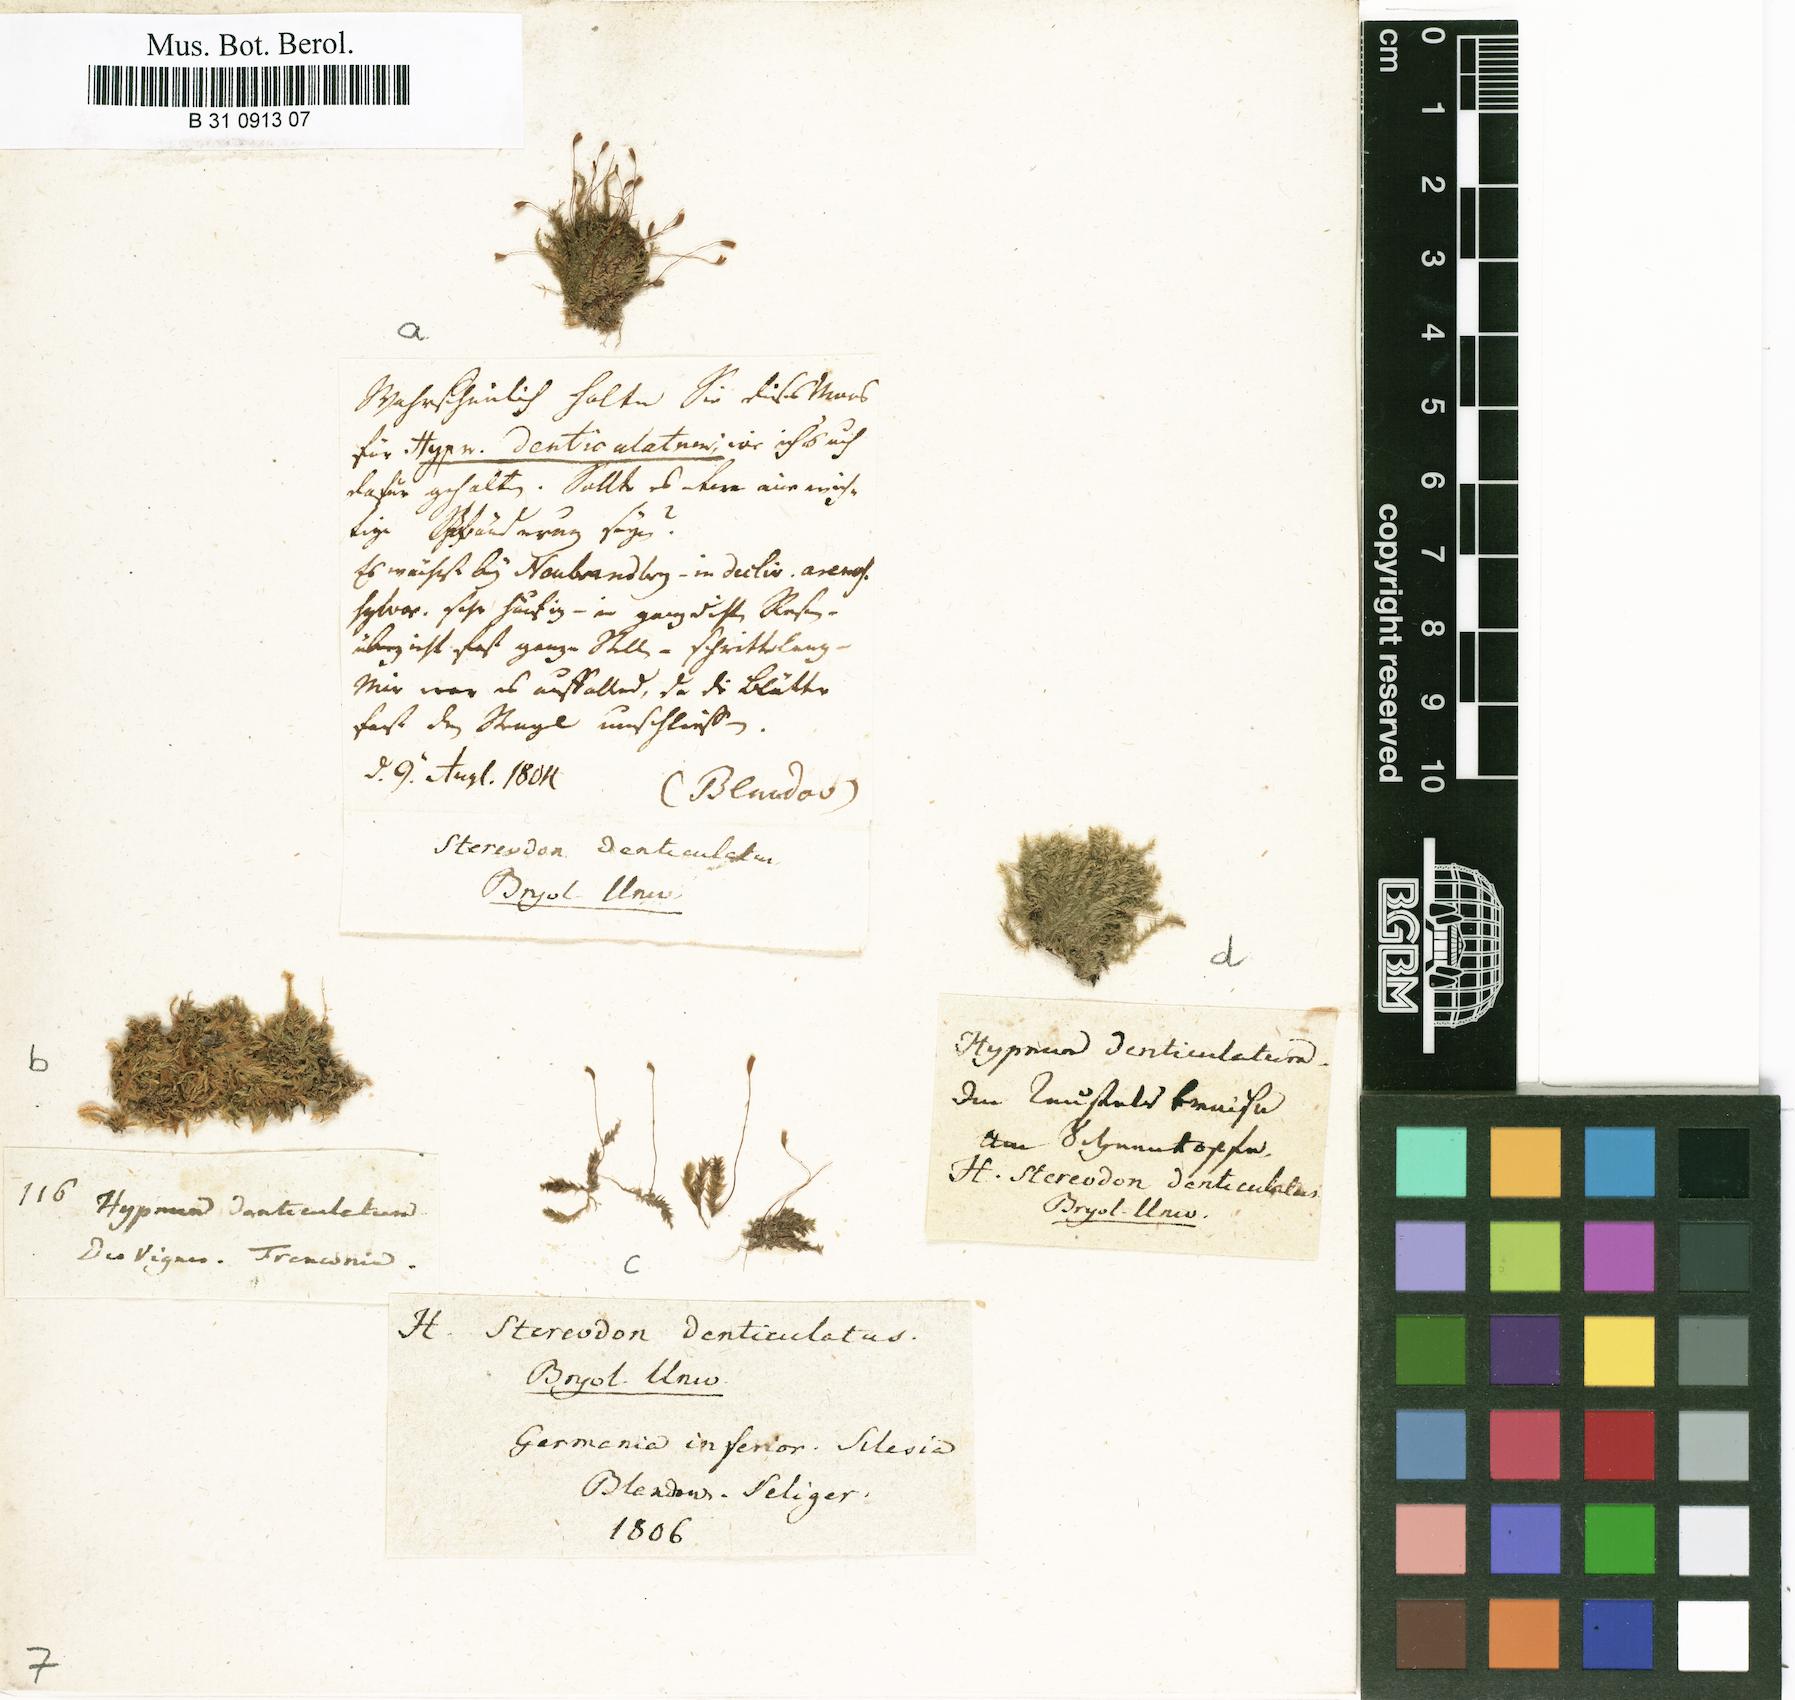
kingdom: Plantae
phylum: Bryophyta
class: Bryopsida
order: Hypnales
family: Plagiotheciaceae
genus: Plagiothecium
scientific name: Plagiothecium denticulatum
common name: Dented silk moss
